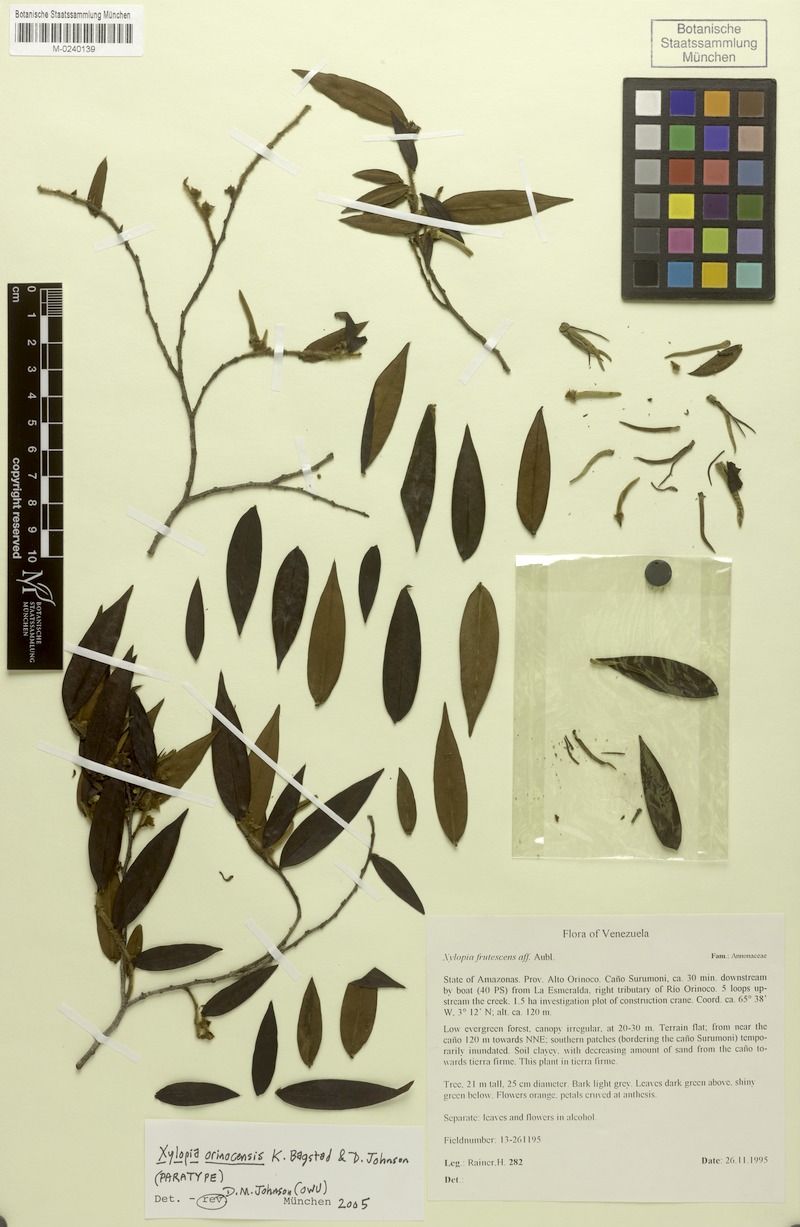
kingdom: Plantae
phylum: Tracheophyta
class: Magnoliopsida
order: Magnoliales
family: Annonaceae
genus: Xylopia
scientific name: Xylopia orinocensis
